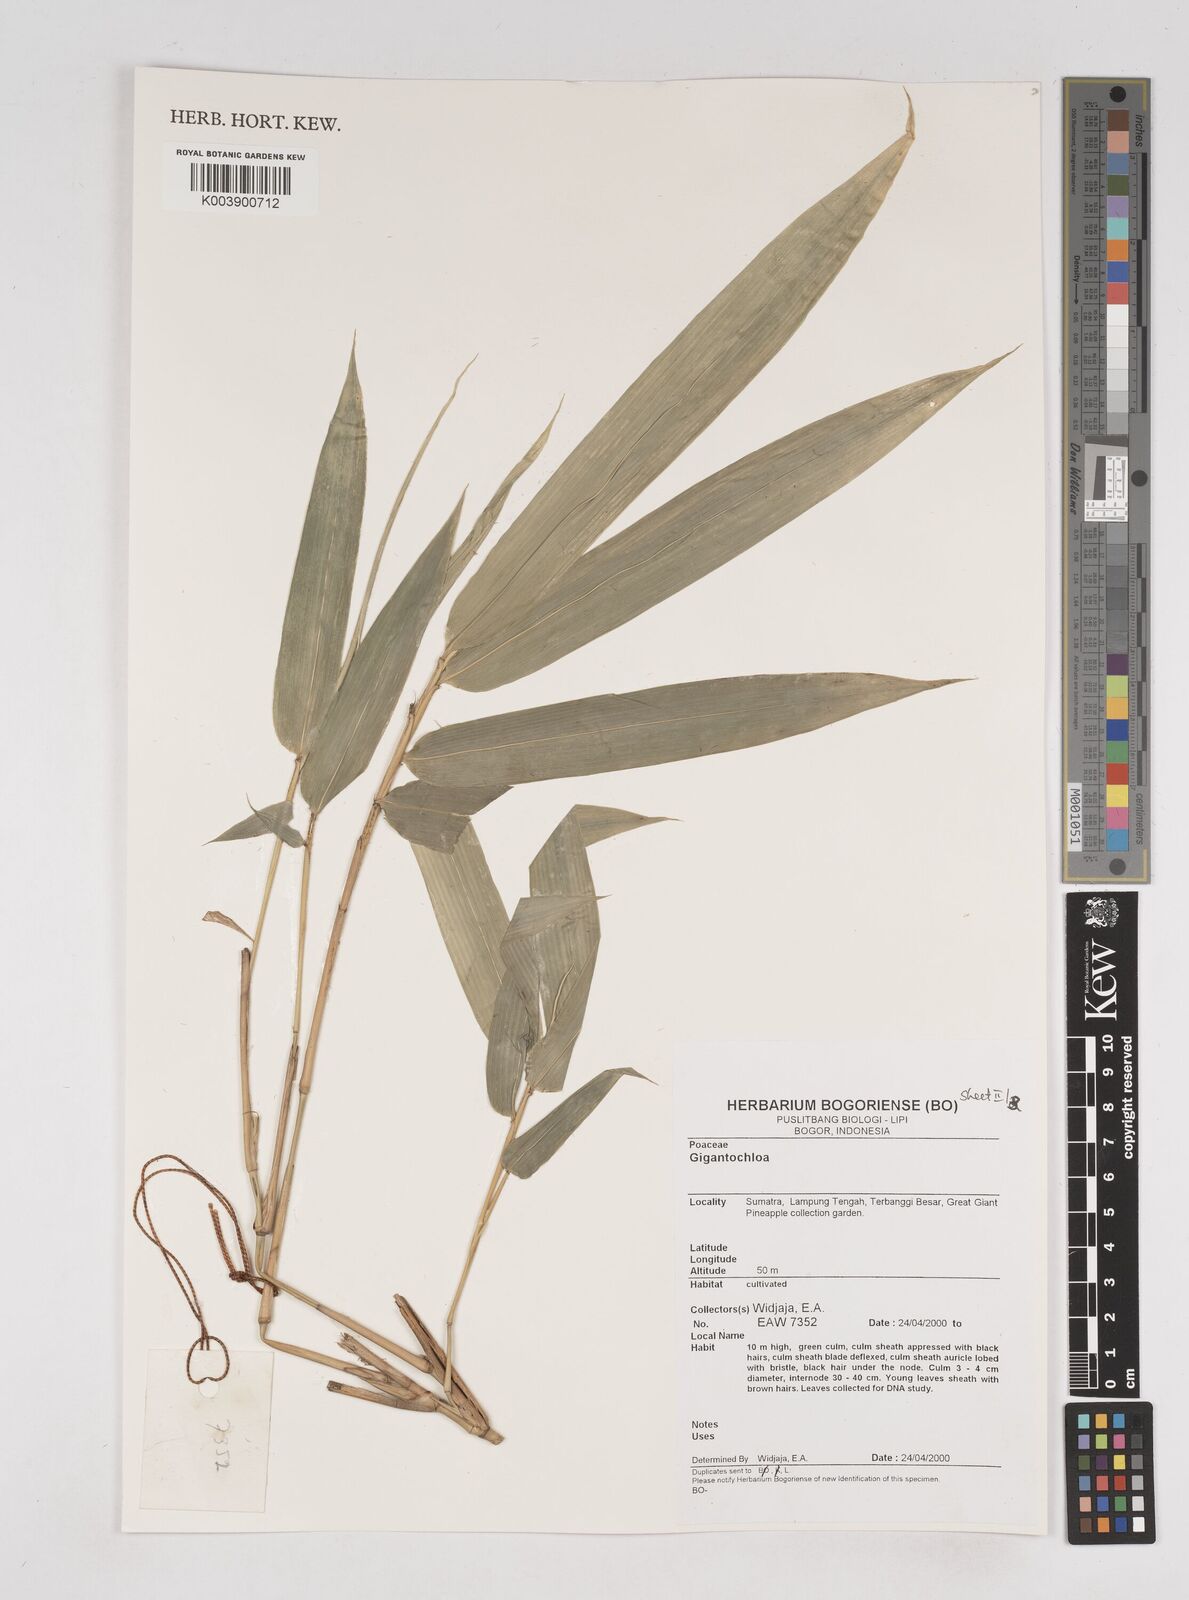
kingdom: Plantae
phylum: Tracheophyta
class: Liliopsida
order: Poales
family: Poaceae
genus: Gigantochloa
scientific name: Gigantochloa
